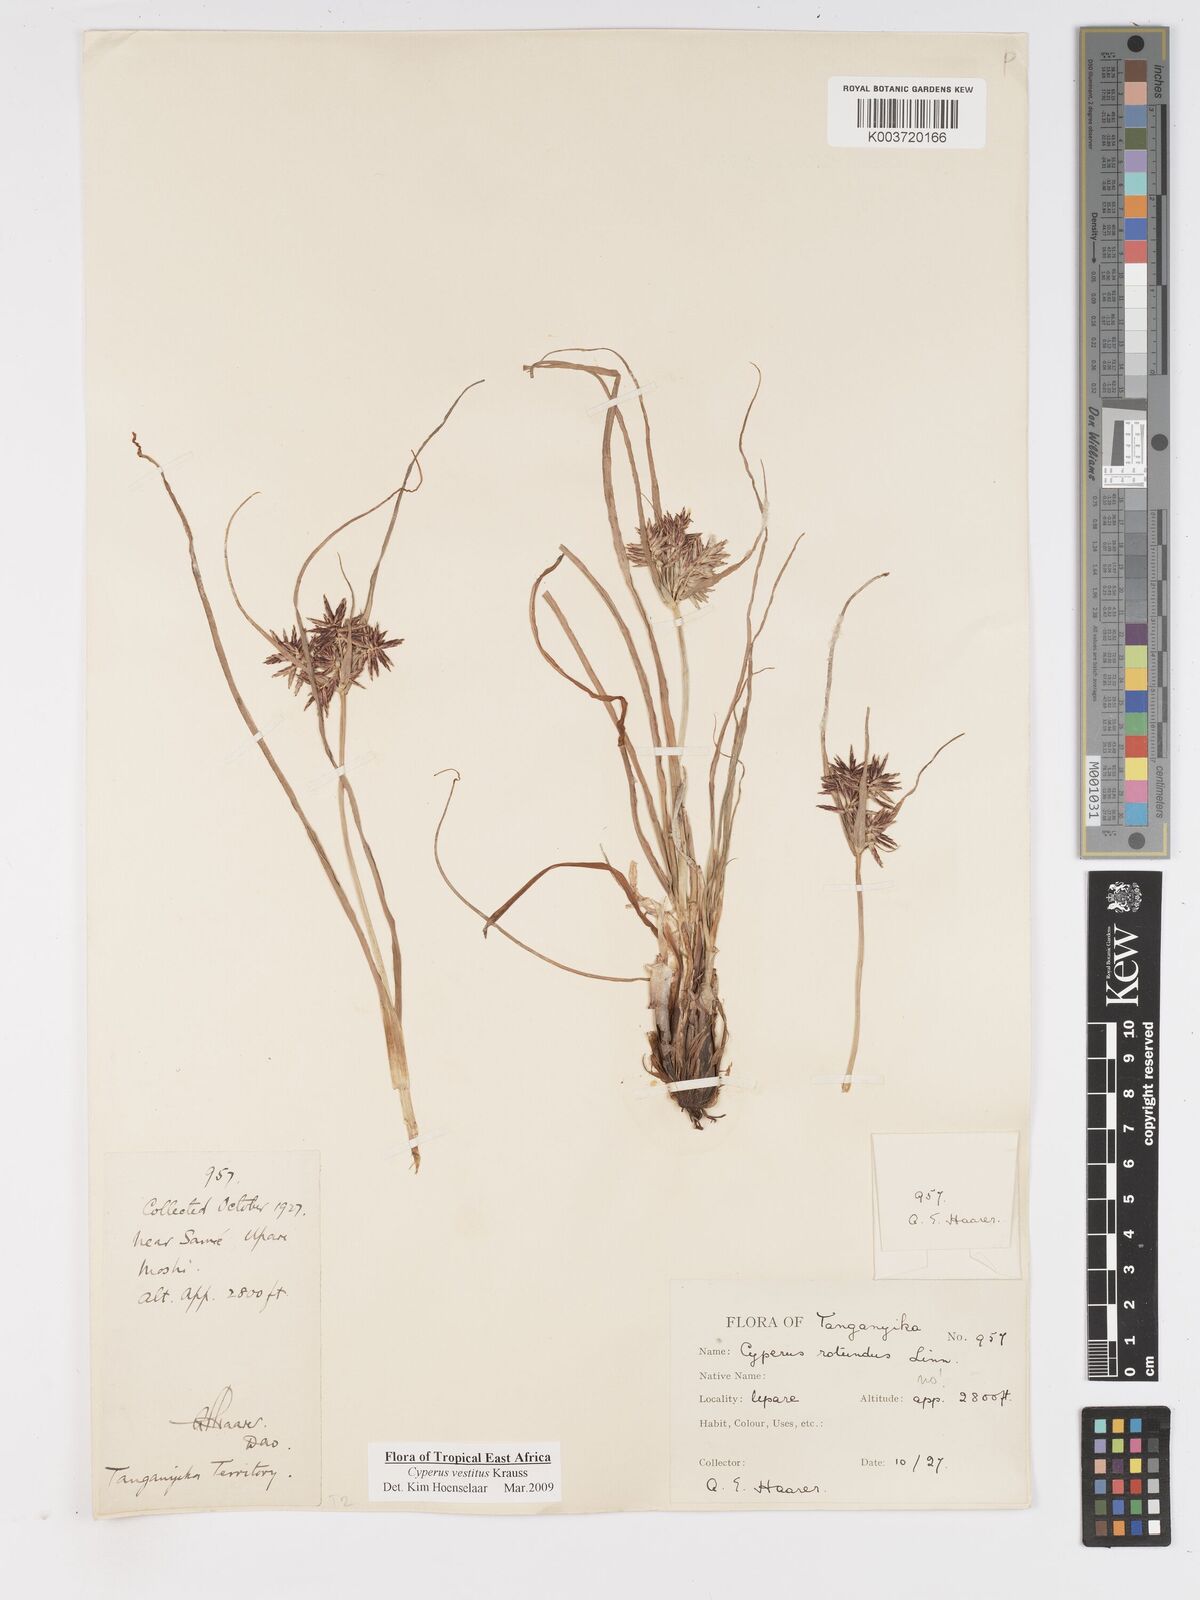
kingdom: Plantae
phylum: Tracheophyta
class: Liliopsida
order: Poales
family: Cyperaceae
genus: Cyperus
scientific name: Cyperus vestitus
